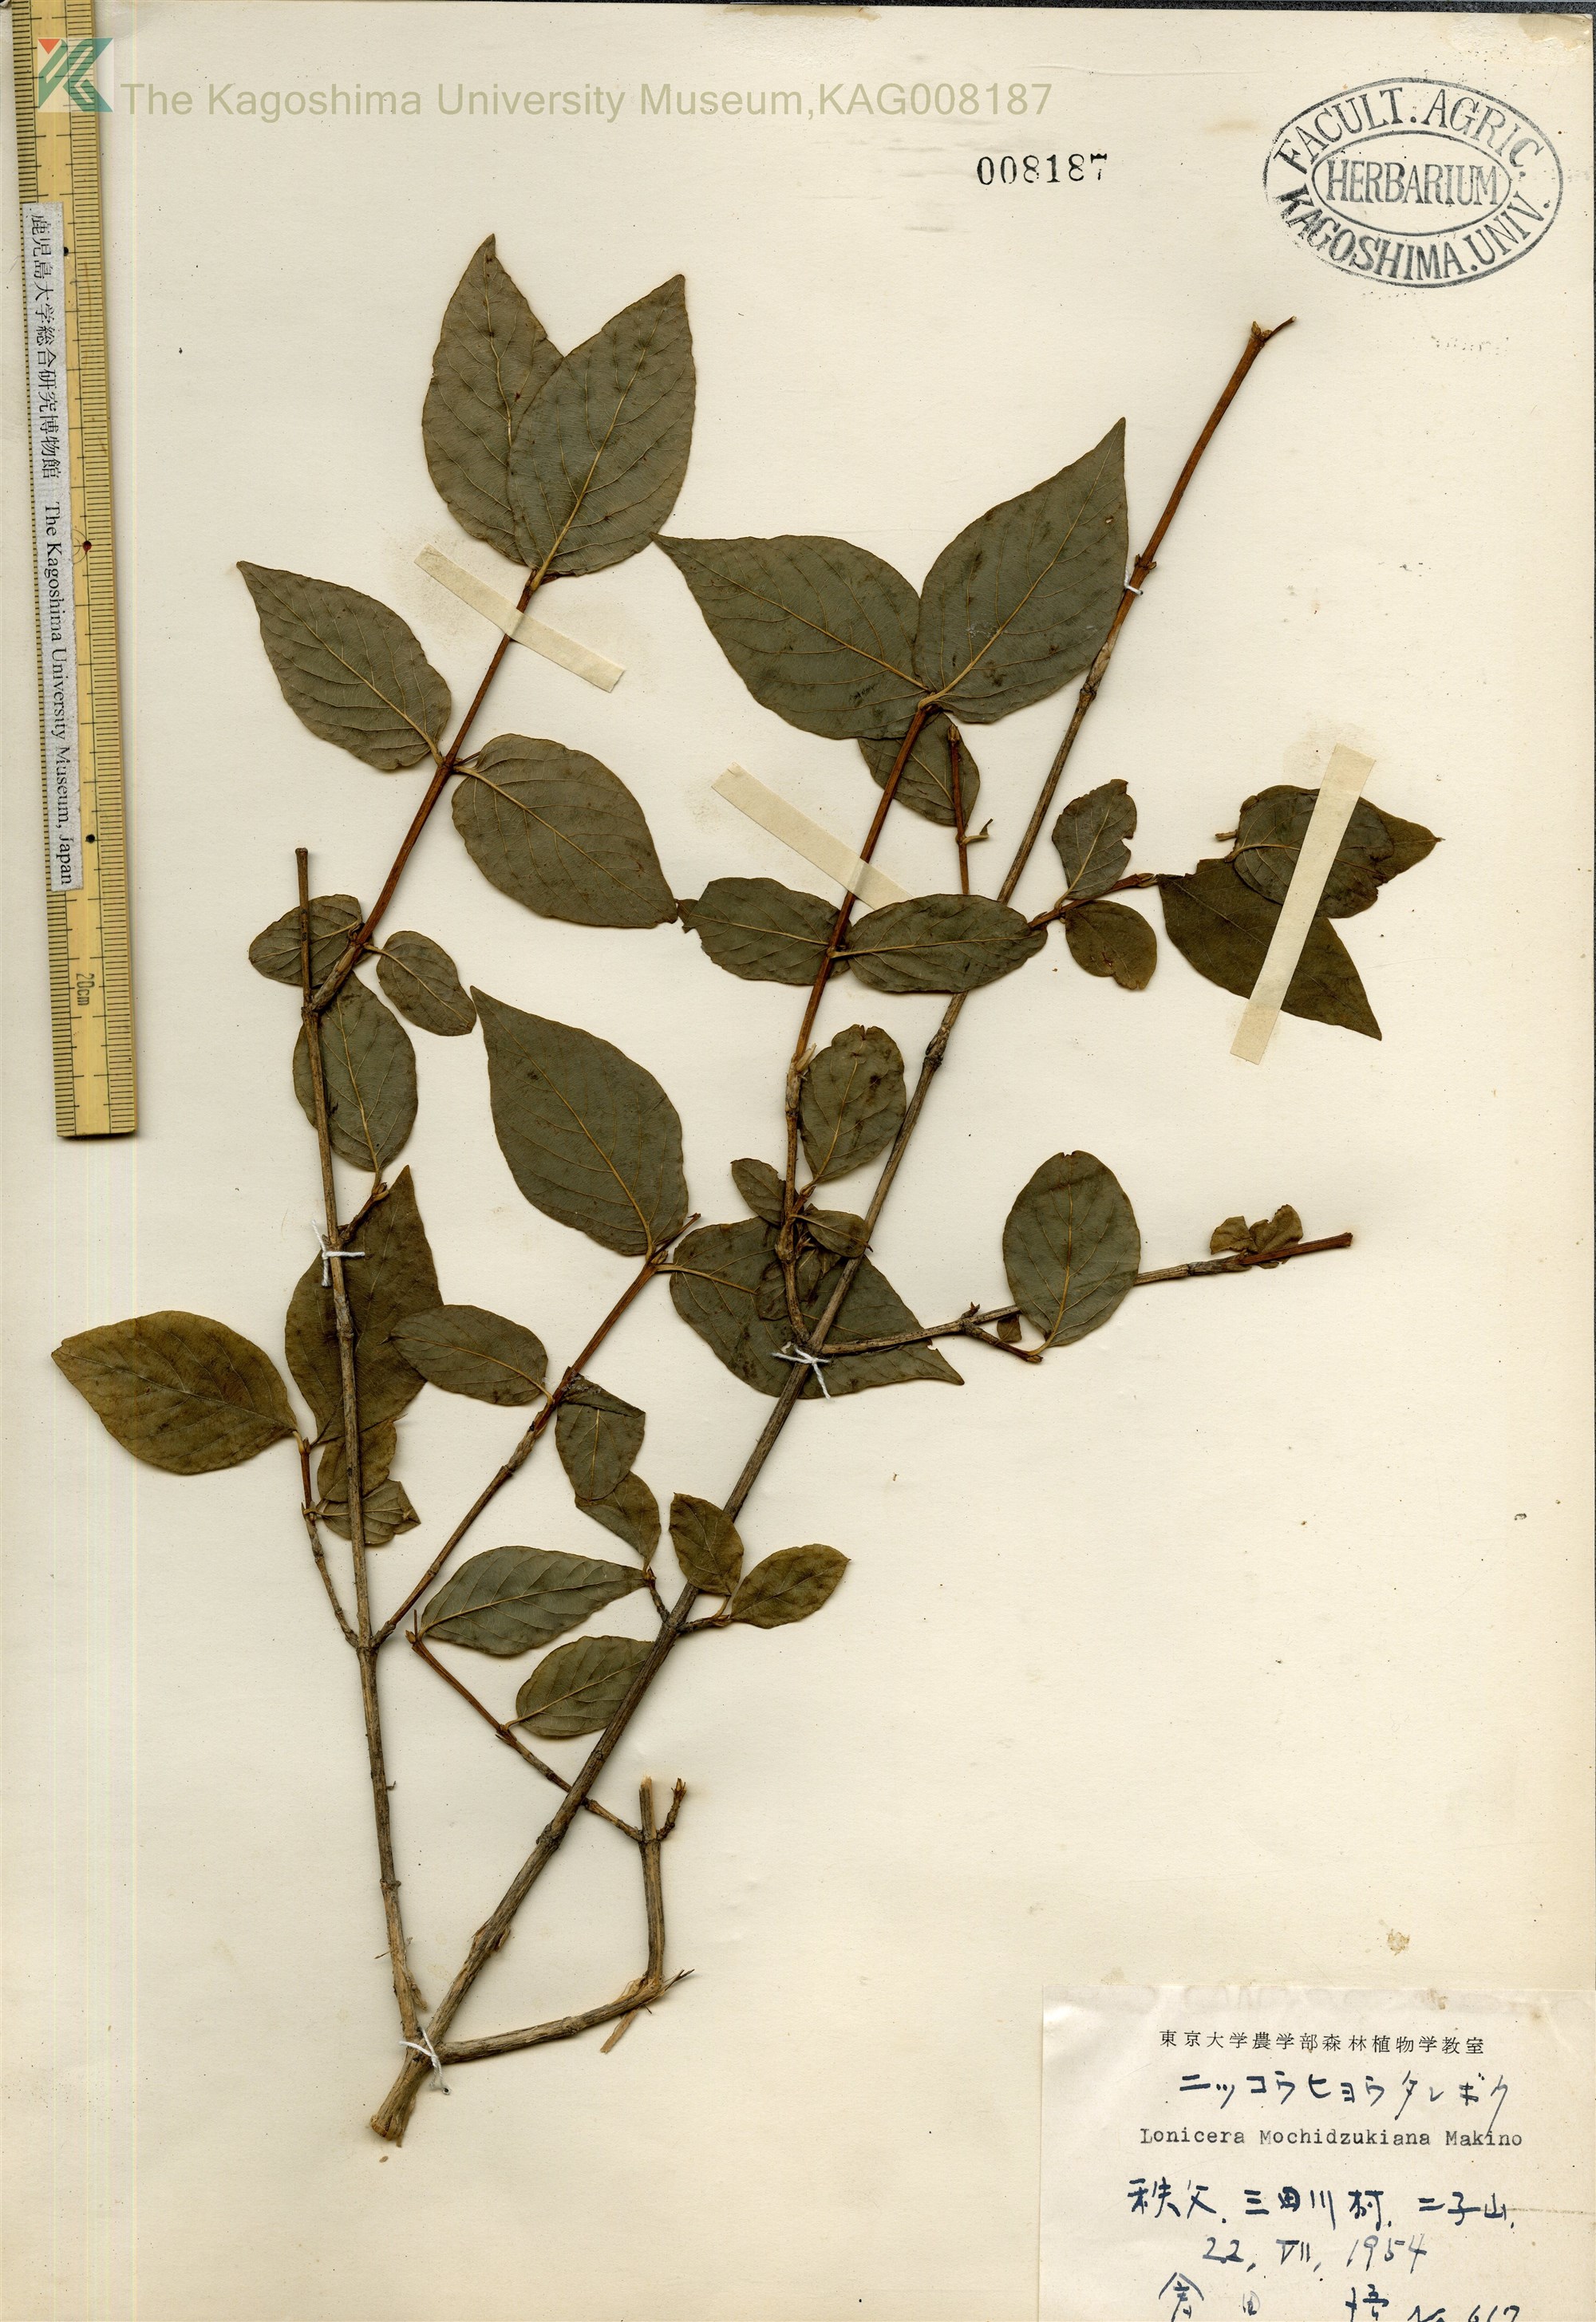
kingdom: Plantae
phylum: Tracheophyta
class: Magnoliopsida
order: Dipsacales
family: Caprifoliaceae
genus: Lonicera
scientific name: Lonicera subhispida
